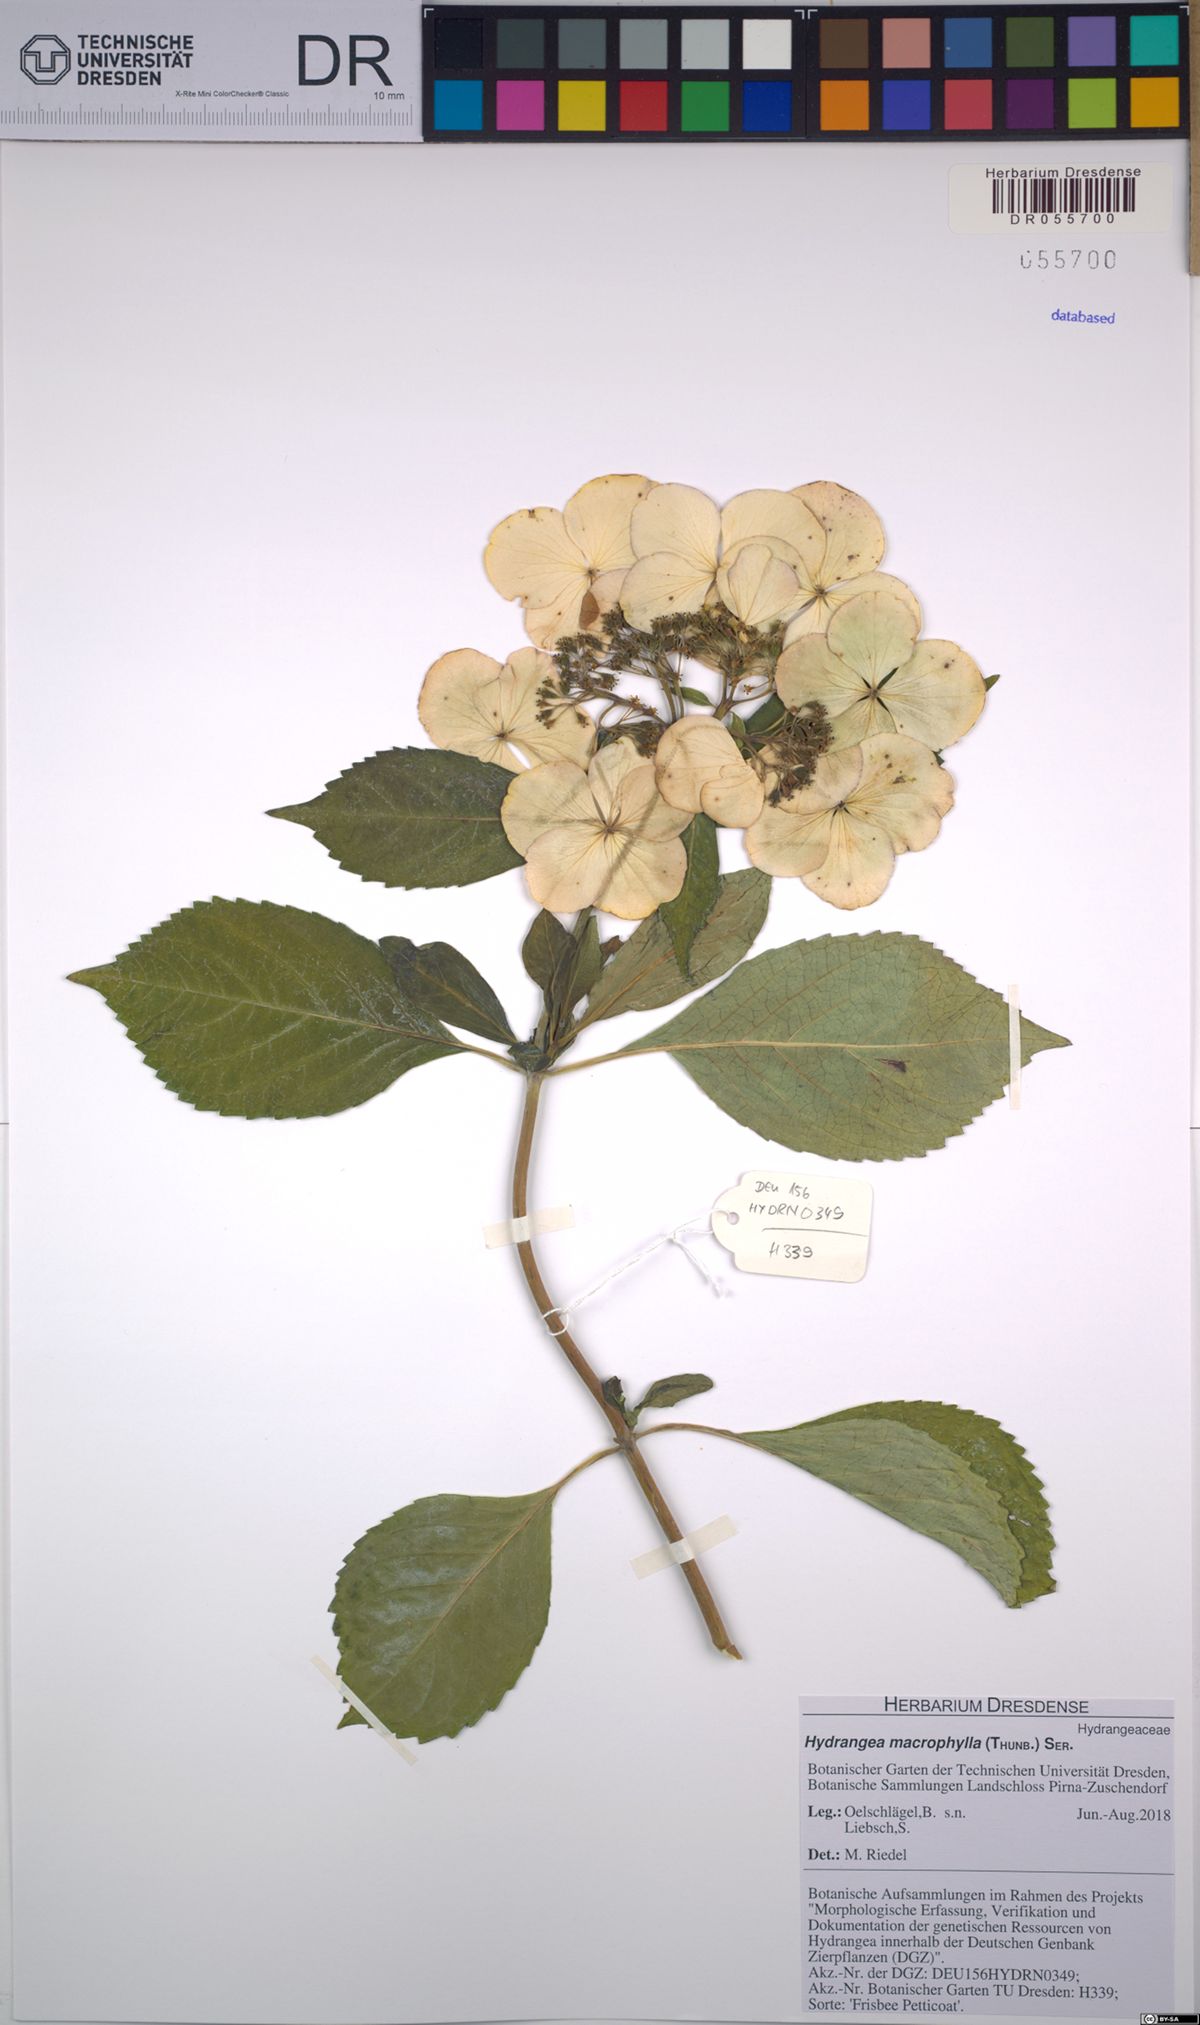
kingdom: Plantae
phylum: Tracheophyta
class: Magnoliopsida
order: Cornales
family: Hydrangeaceae
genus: Hydrangea
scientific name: Hydrangea macrophylla
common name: Hydrangea
